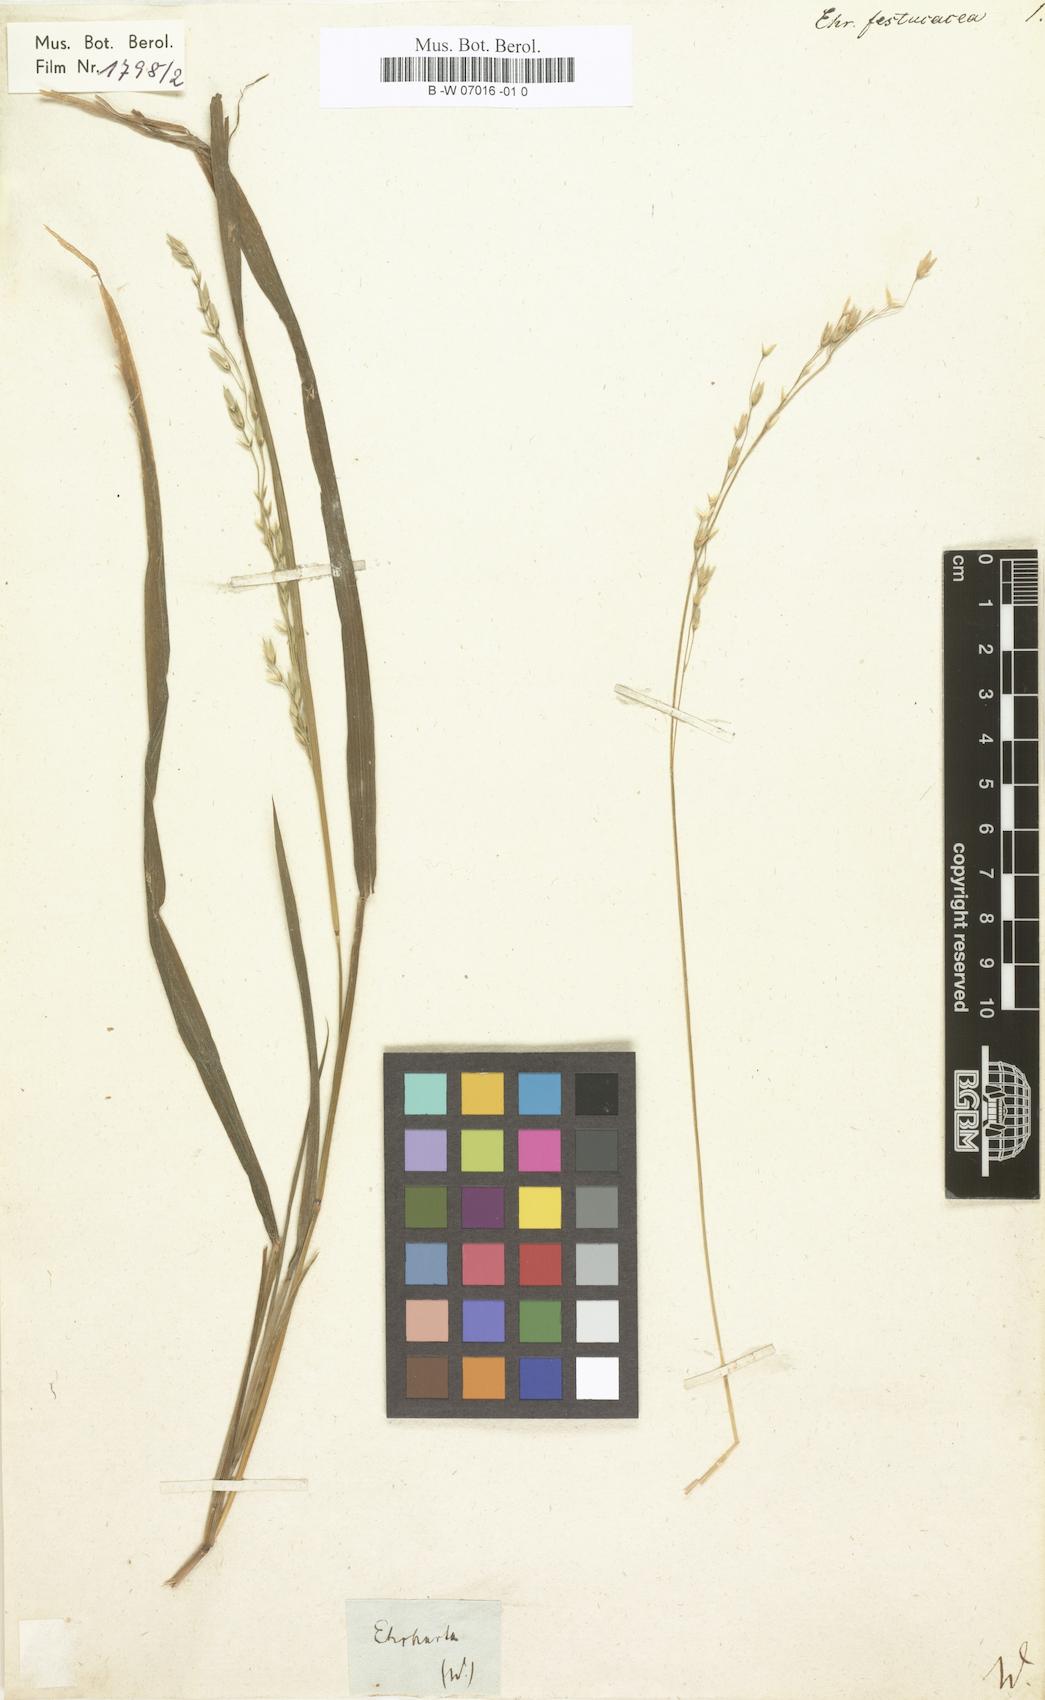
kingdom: Plantae
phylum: Tracheophyta
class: Liliopsida
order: Poales
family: Poaceae
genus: Ehrharta
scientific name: Ehrharta festucacea
